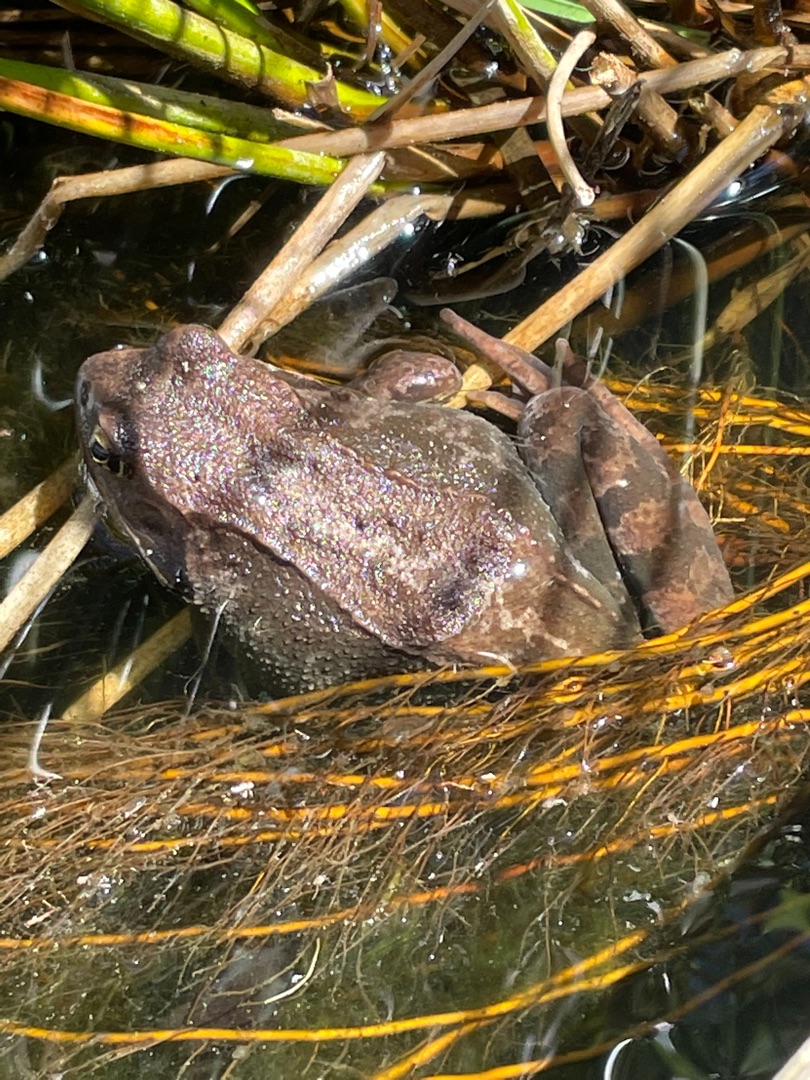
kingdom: Animalia
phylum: Chordata
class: Amphibia
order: Anura
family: Ranidae
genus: Rana
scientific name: Rana temporaria
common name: Butsnudet frø
